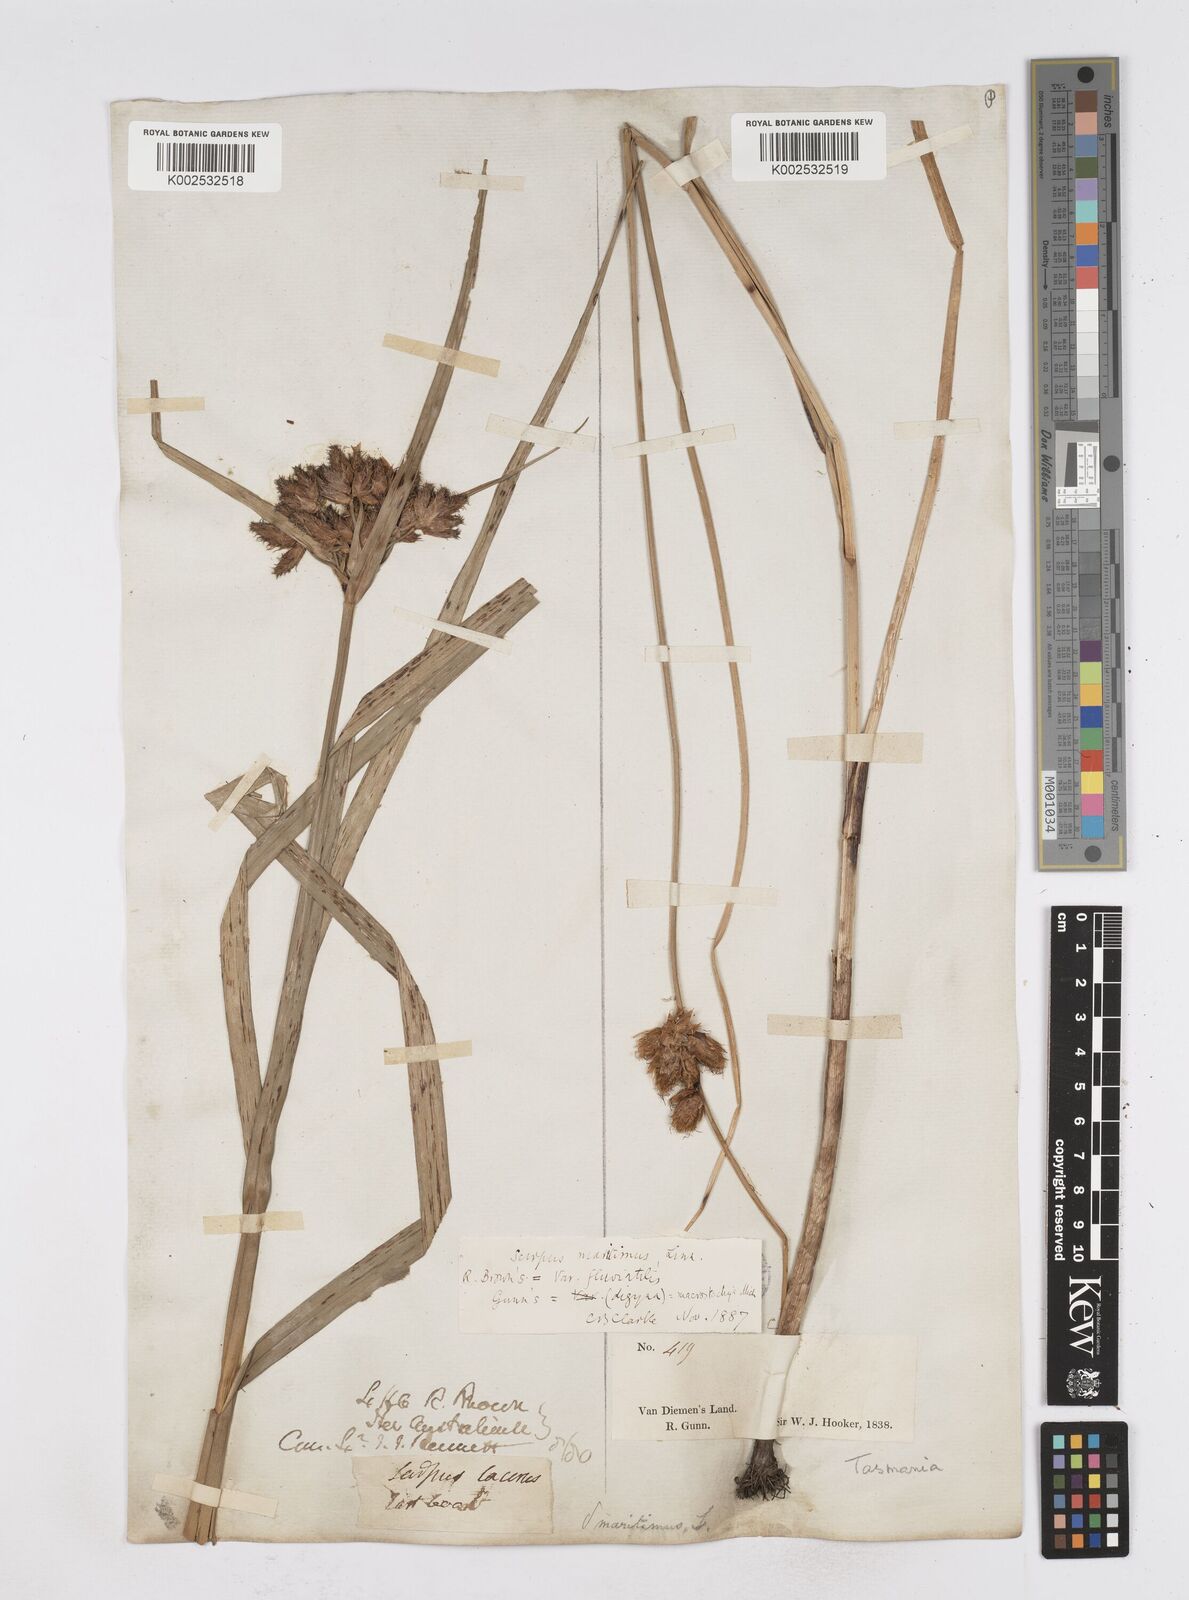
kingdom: Plantae
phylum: Tracheophyta
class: Liliopsida
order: Poales
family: Cyperaceae
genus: Bolboschoenus
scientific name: Bolboschoenus maritimus
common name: Sea club-rush
